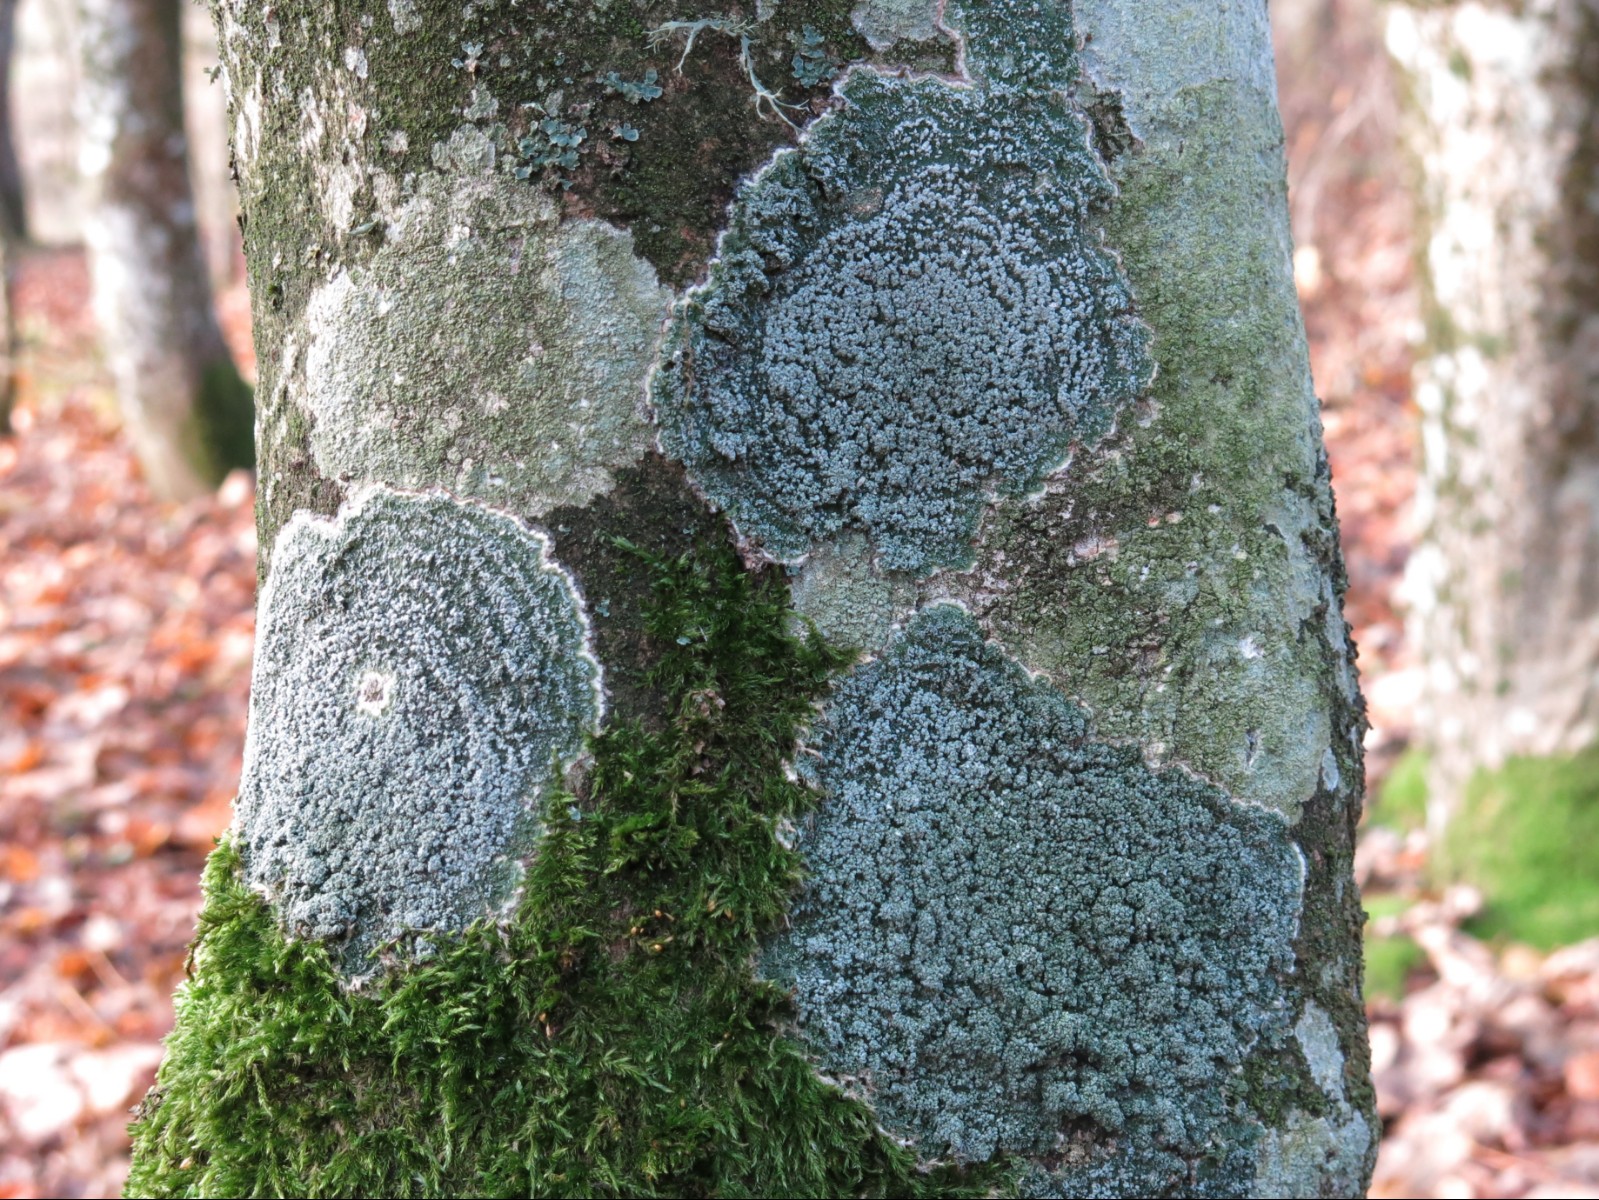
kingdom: Fungi
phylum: Ascomycota
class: Lecanoromycetes
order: Pertusariales
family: Pertusariaceae
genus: Lepra
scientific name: Lepra albescens
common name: hvidmelet prikvortelav
